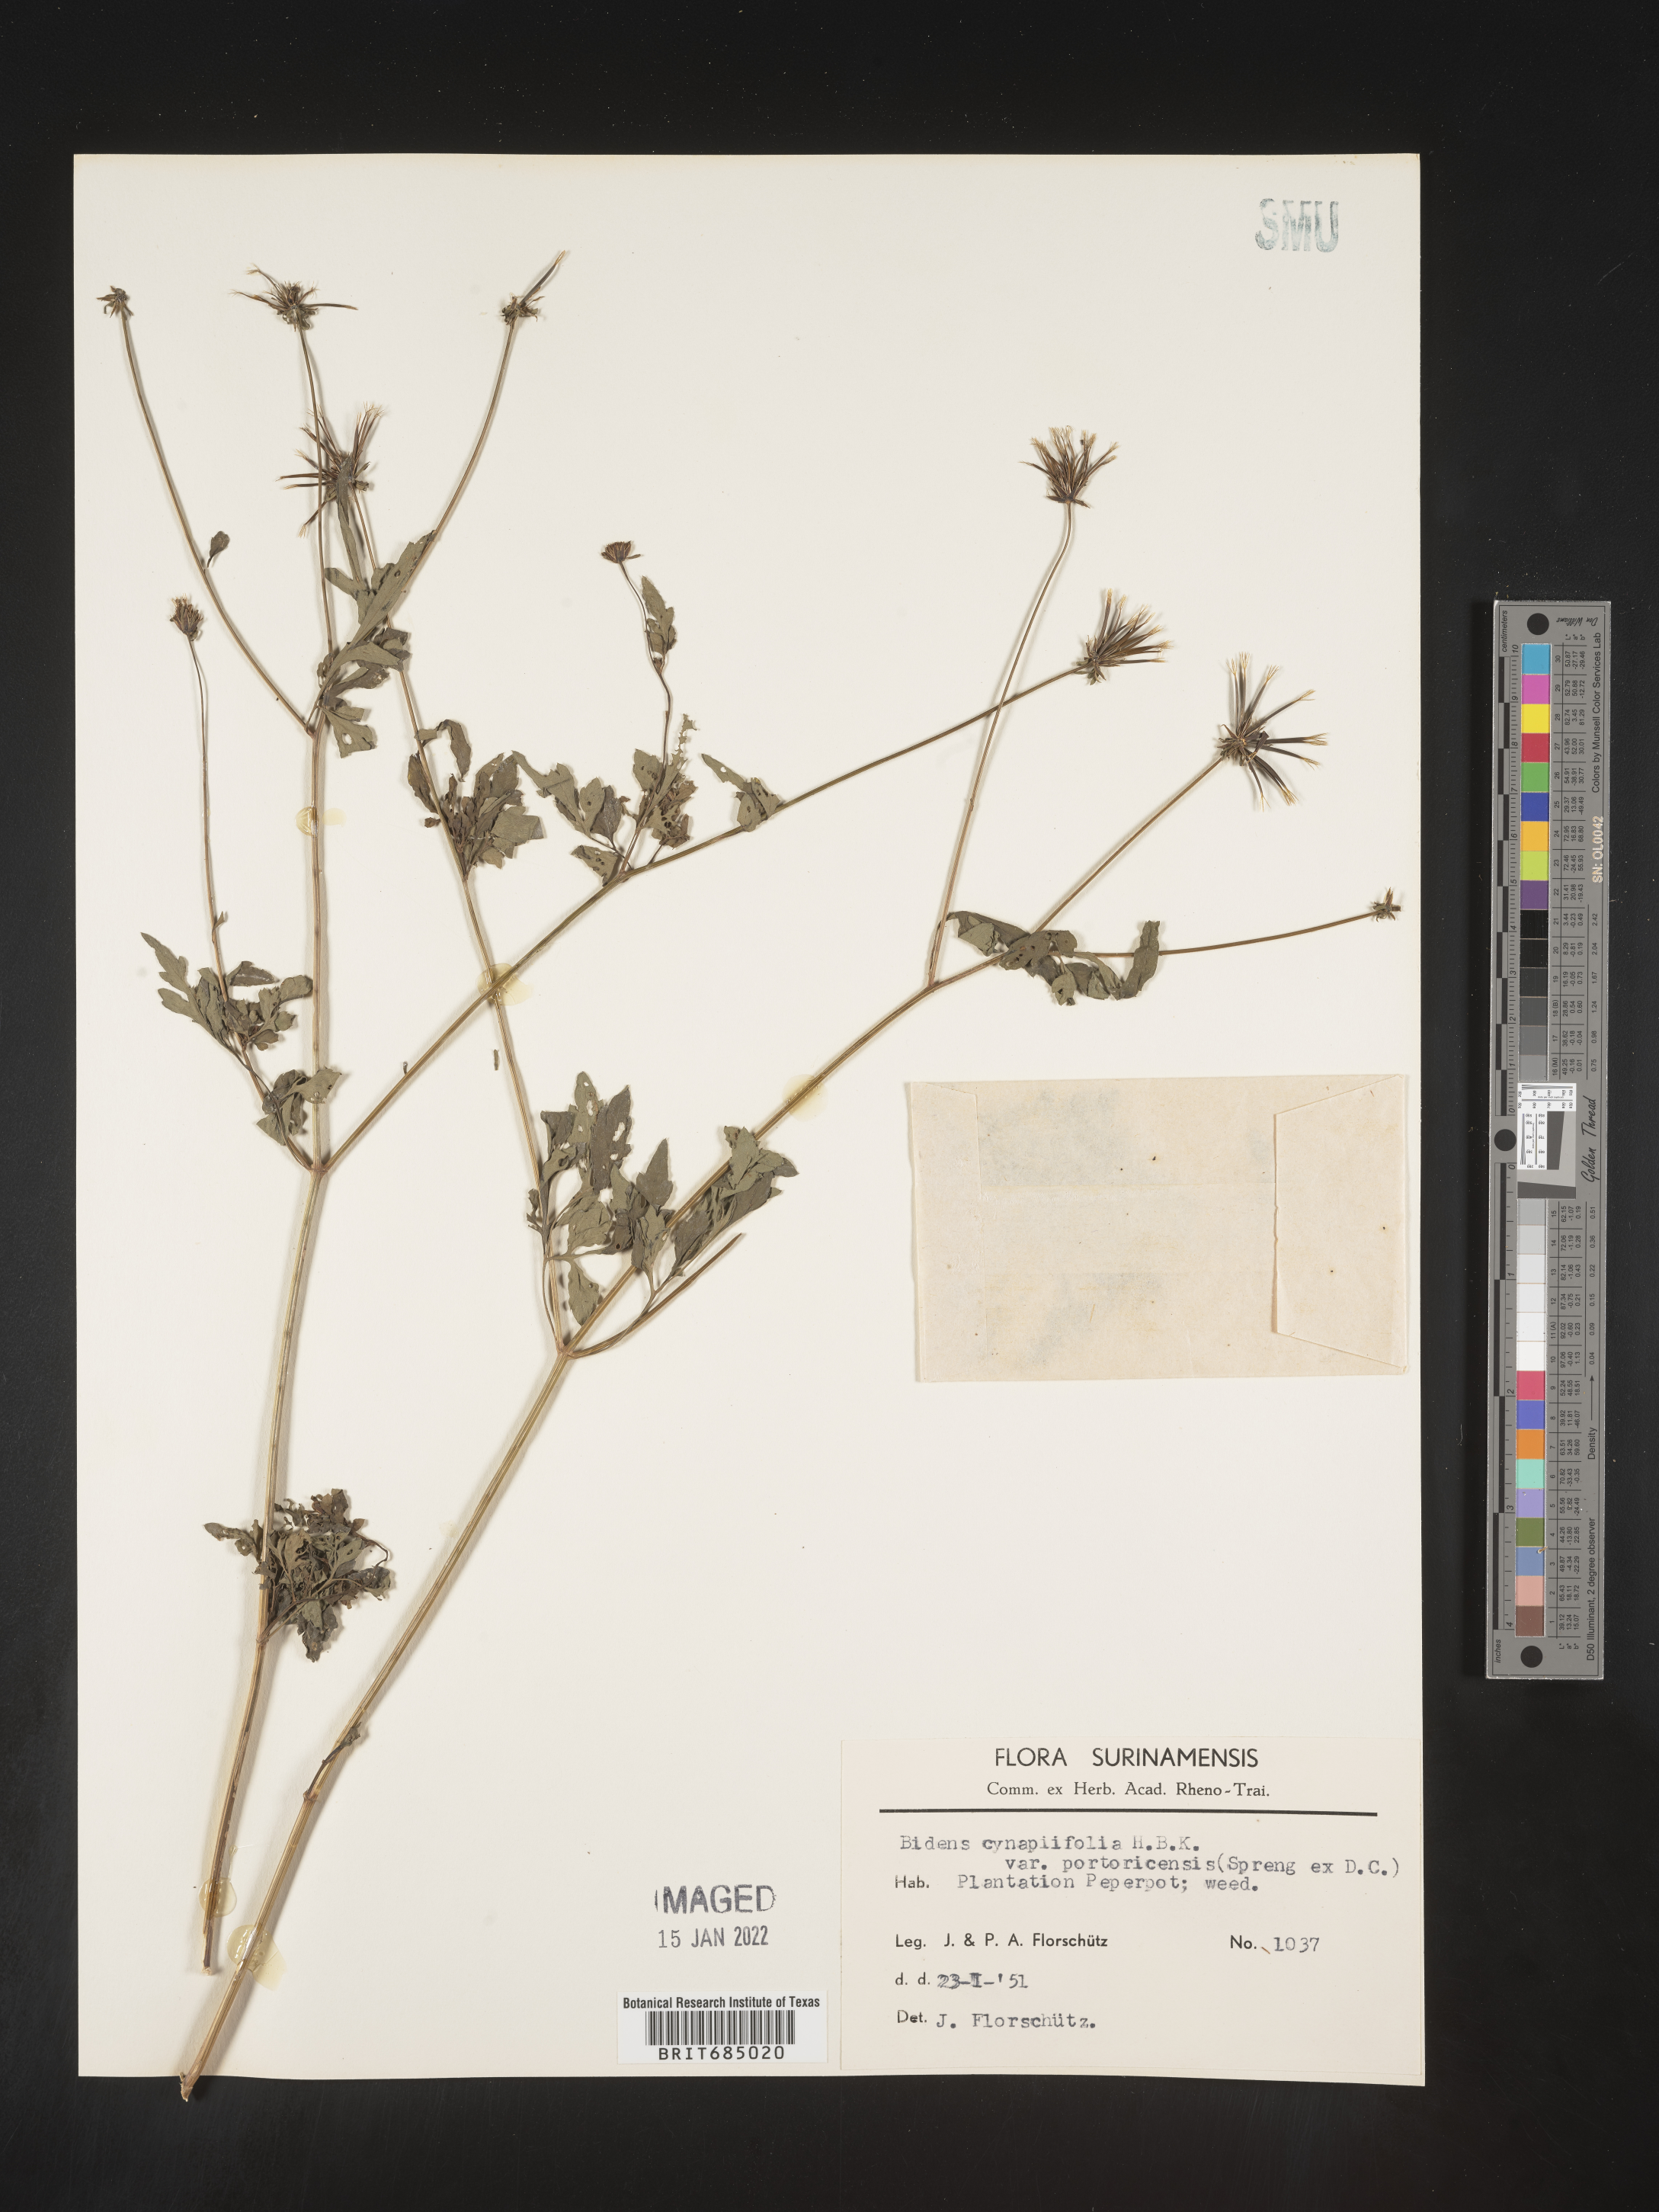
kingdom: Plantae
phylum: Tracheophyta
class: Magnoliopsida
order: Asterales
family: Asteraceae
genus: Bidens
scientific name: Bidens
